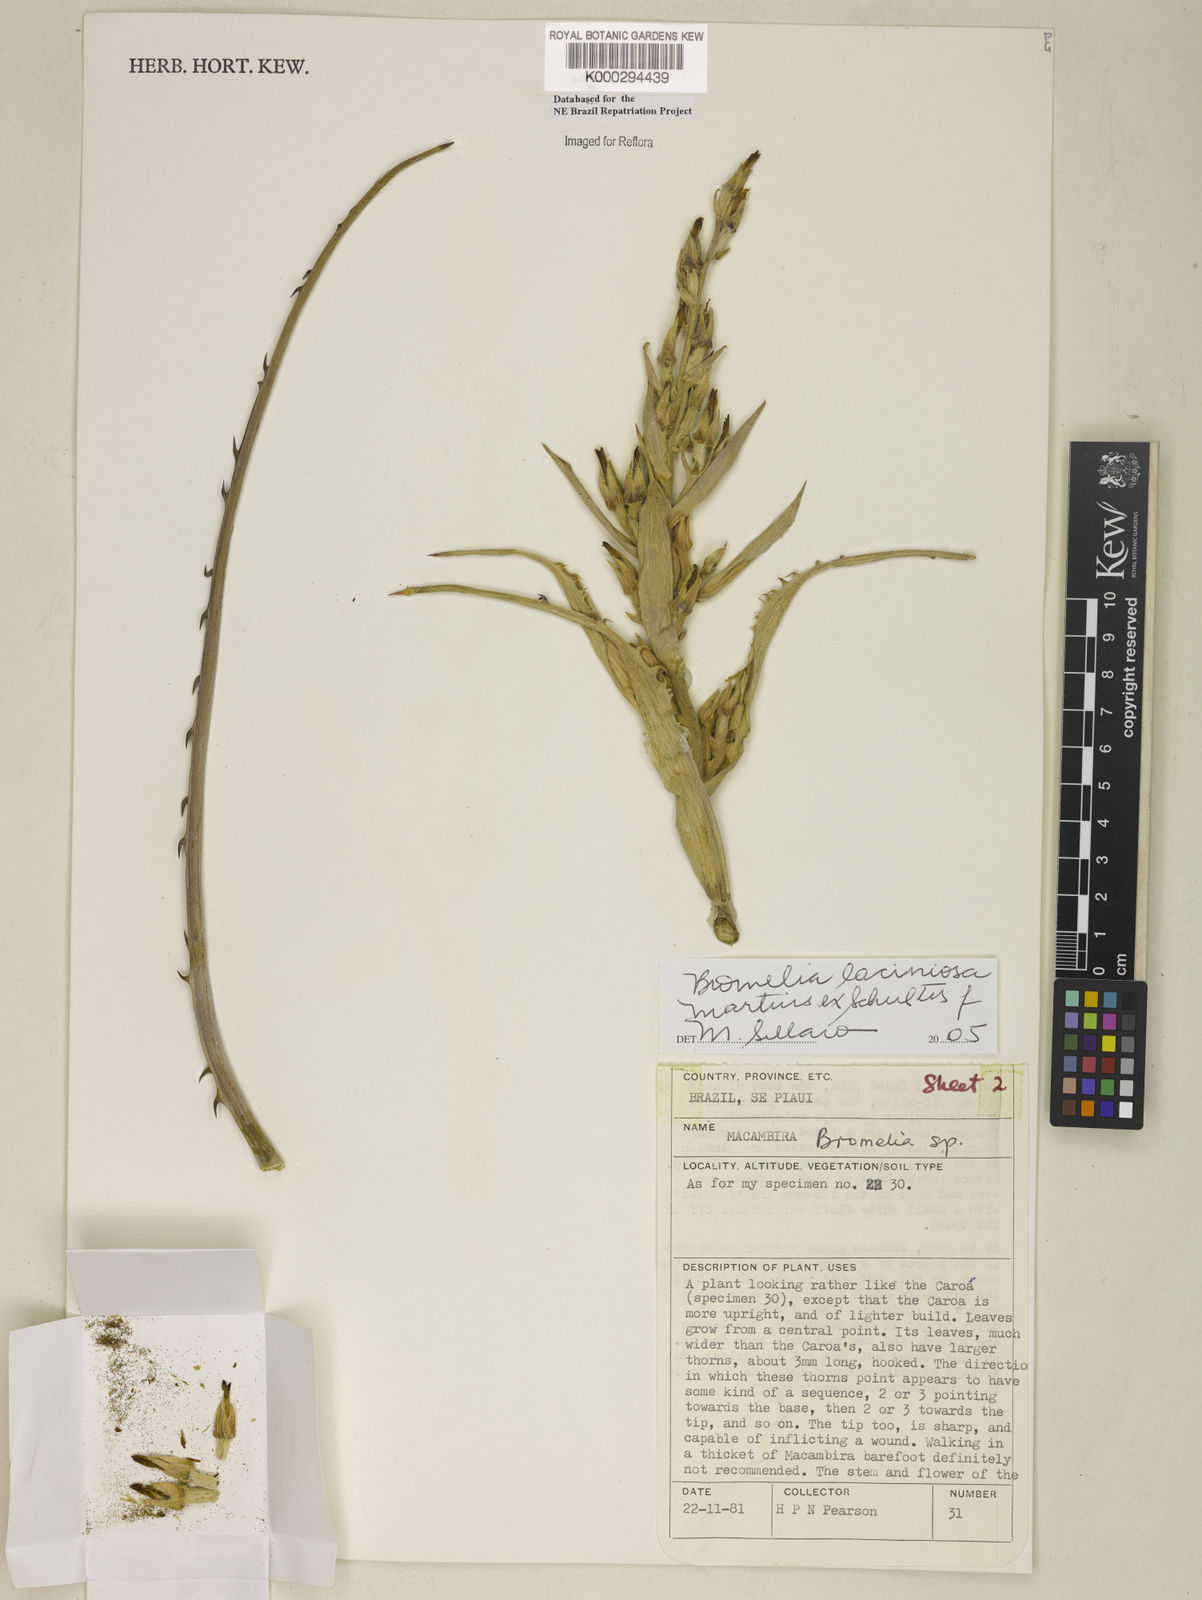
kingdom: Plantae
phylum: Tracheophyta
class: Liliopsida
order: Poales
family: Bromeliaceae
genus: Bromelia
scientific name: Bromelia laciniosa
